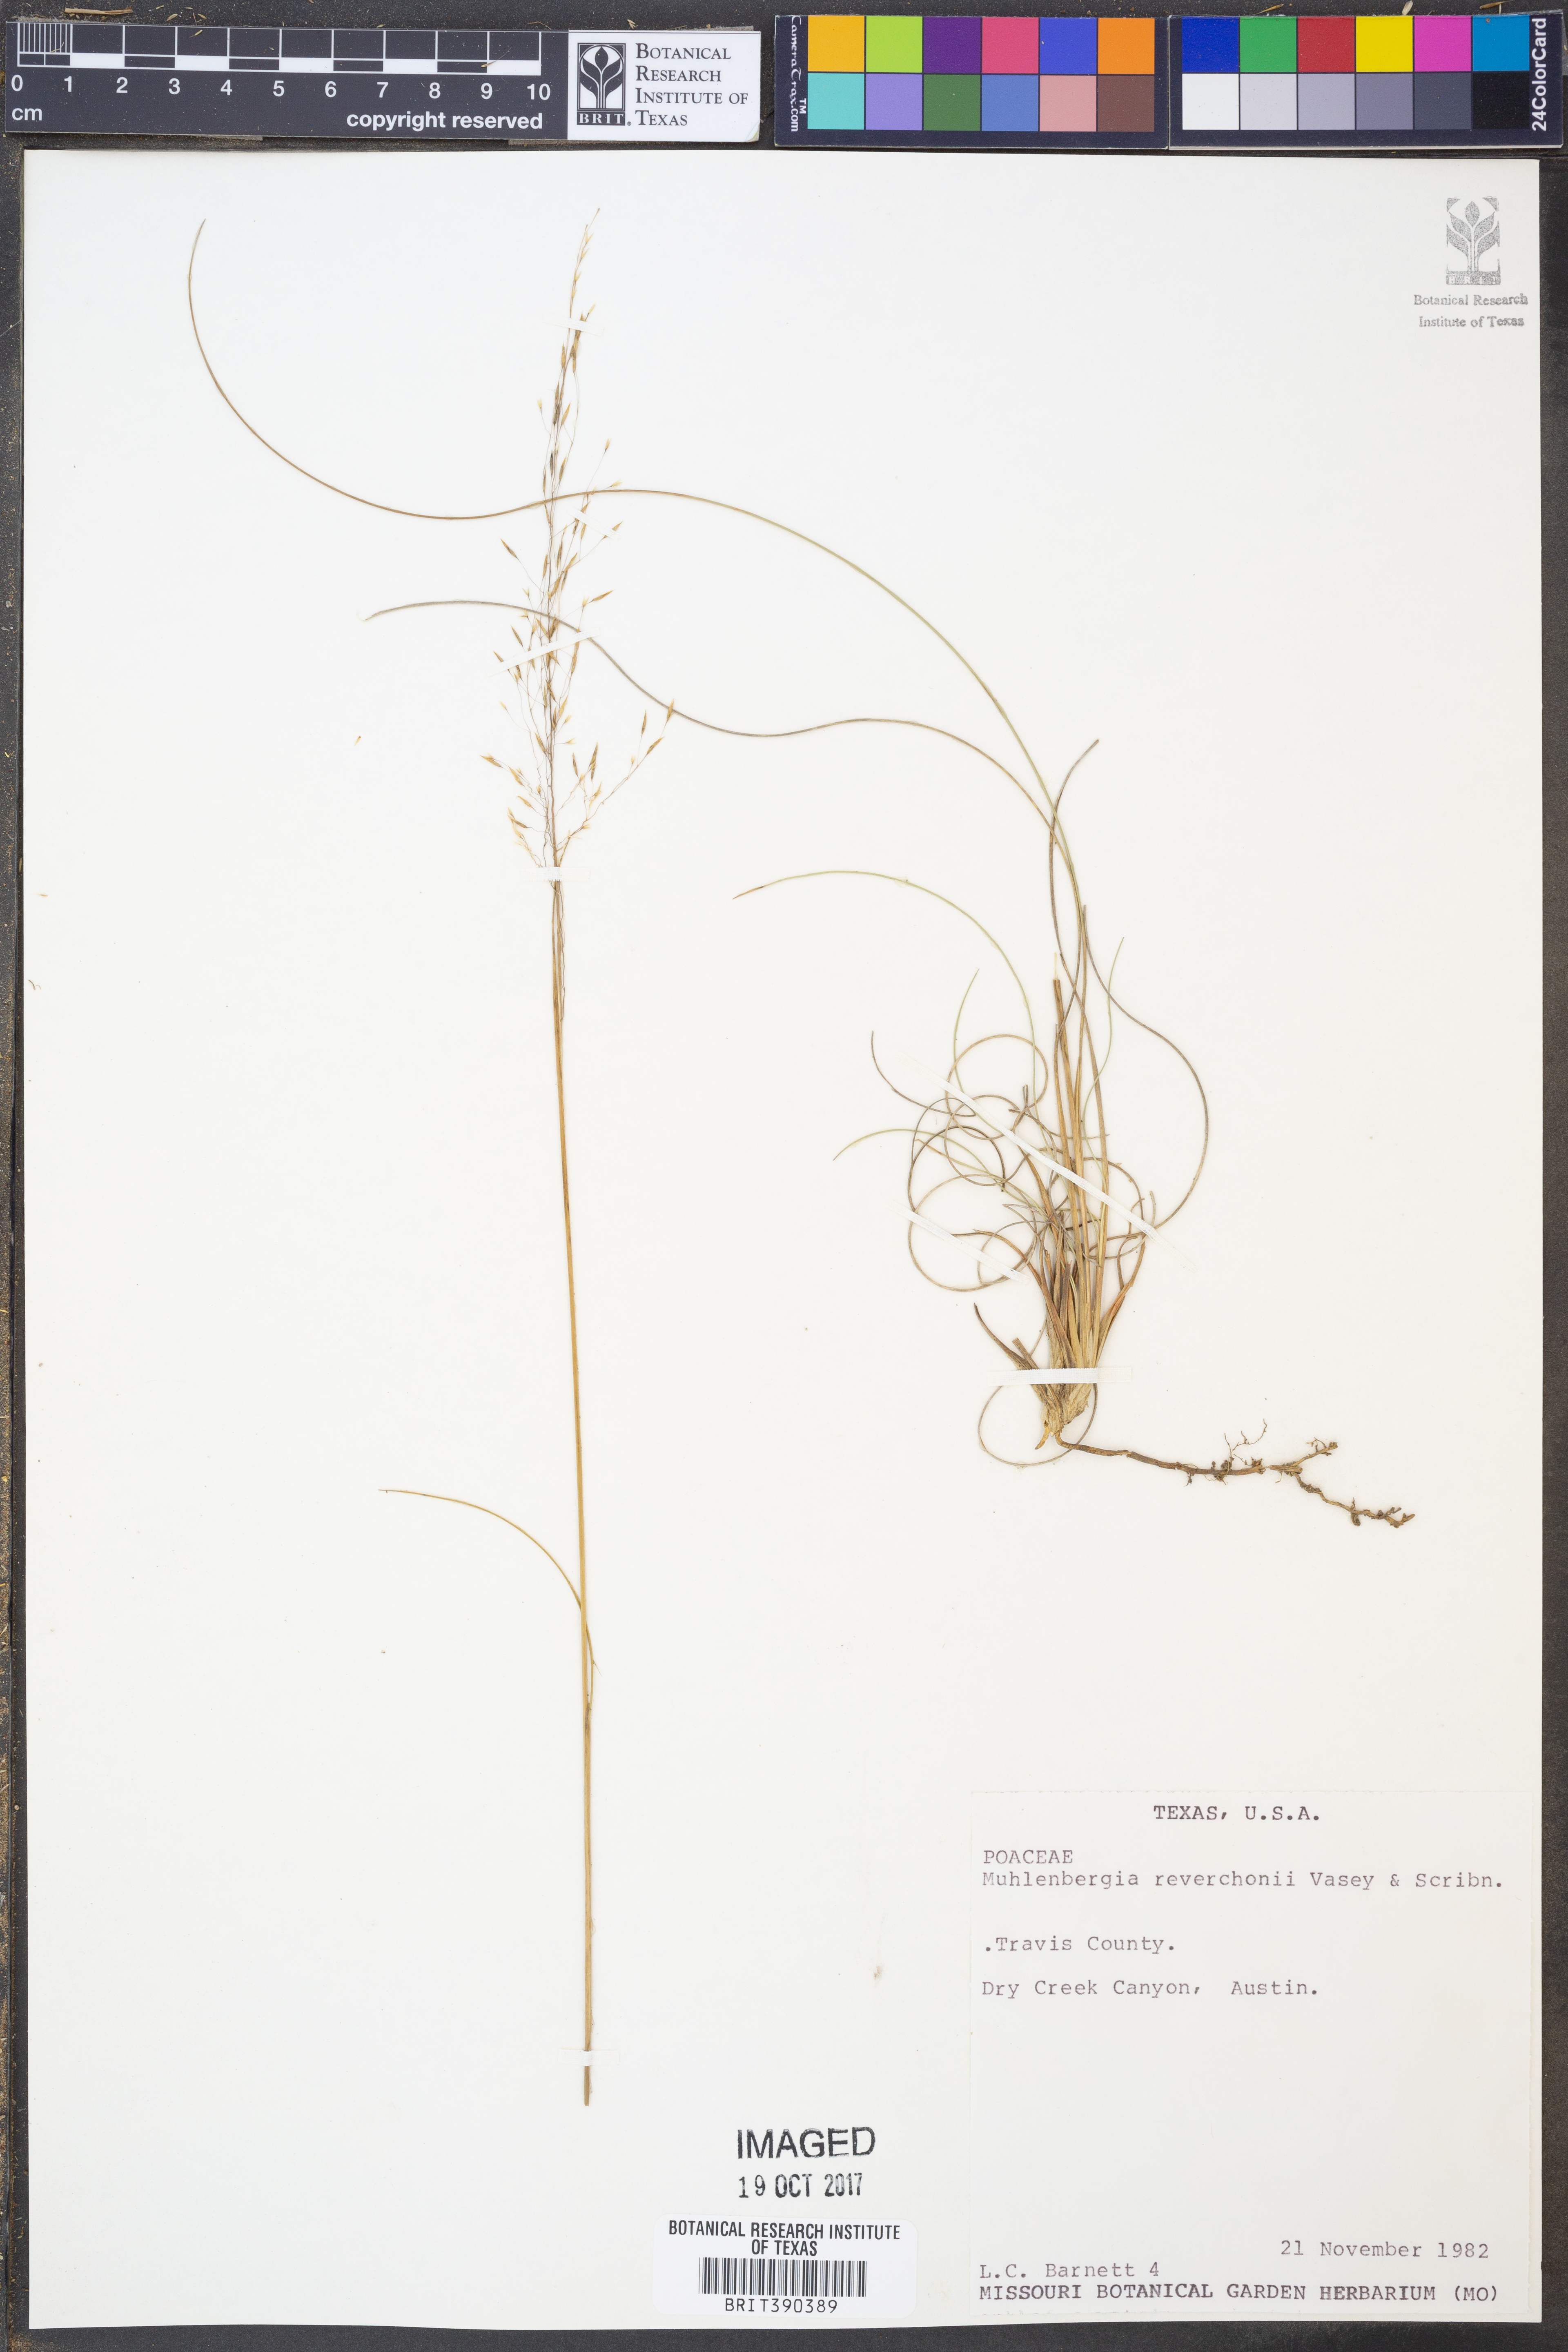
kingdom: Plantae
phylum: Tracheophyta
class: Liliopsida
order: Poales
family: Poaceae
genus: Muhlenbergia
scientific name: Muhlenbergia reverchonii
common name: Seep muhly
